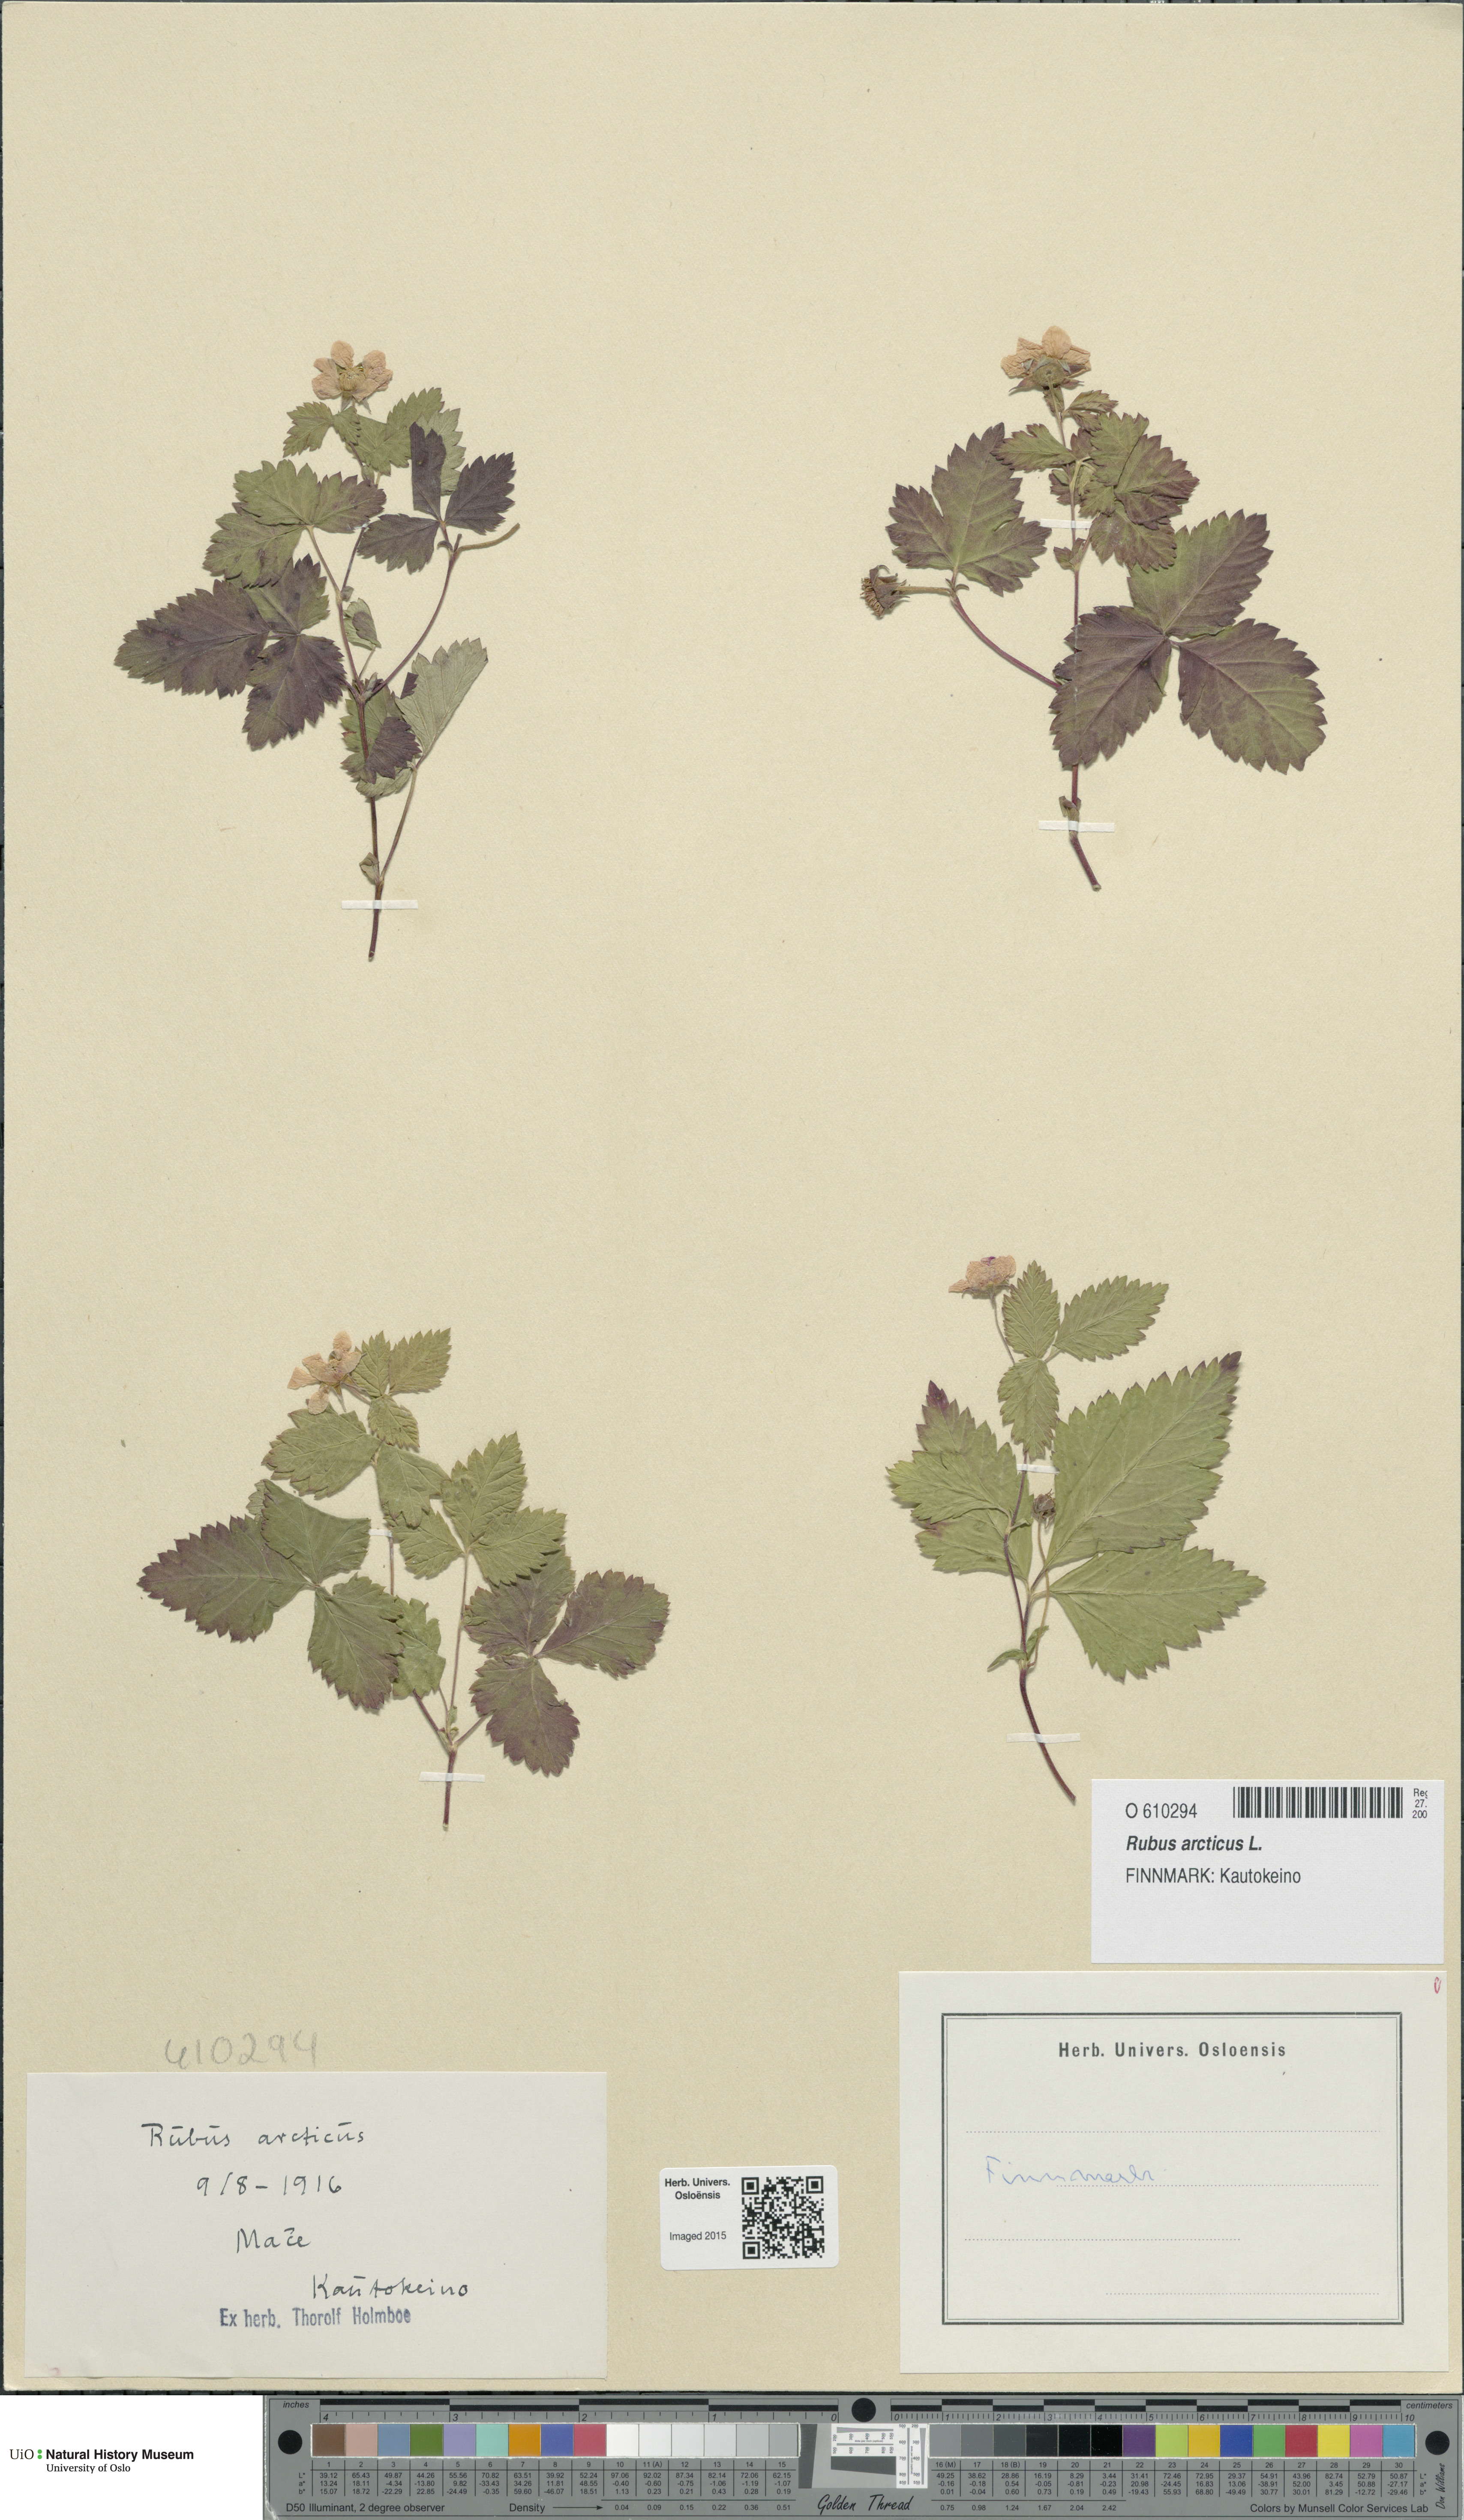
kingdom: Plantae
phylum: Tracheophyta
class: Magnoliopsida
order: Rosales
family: Rosaceae
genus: Rubus
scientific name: Rubus arcticus
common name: Arctic bramble
